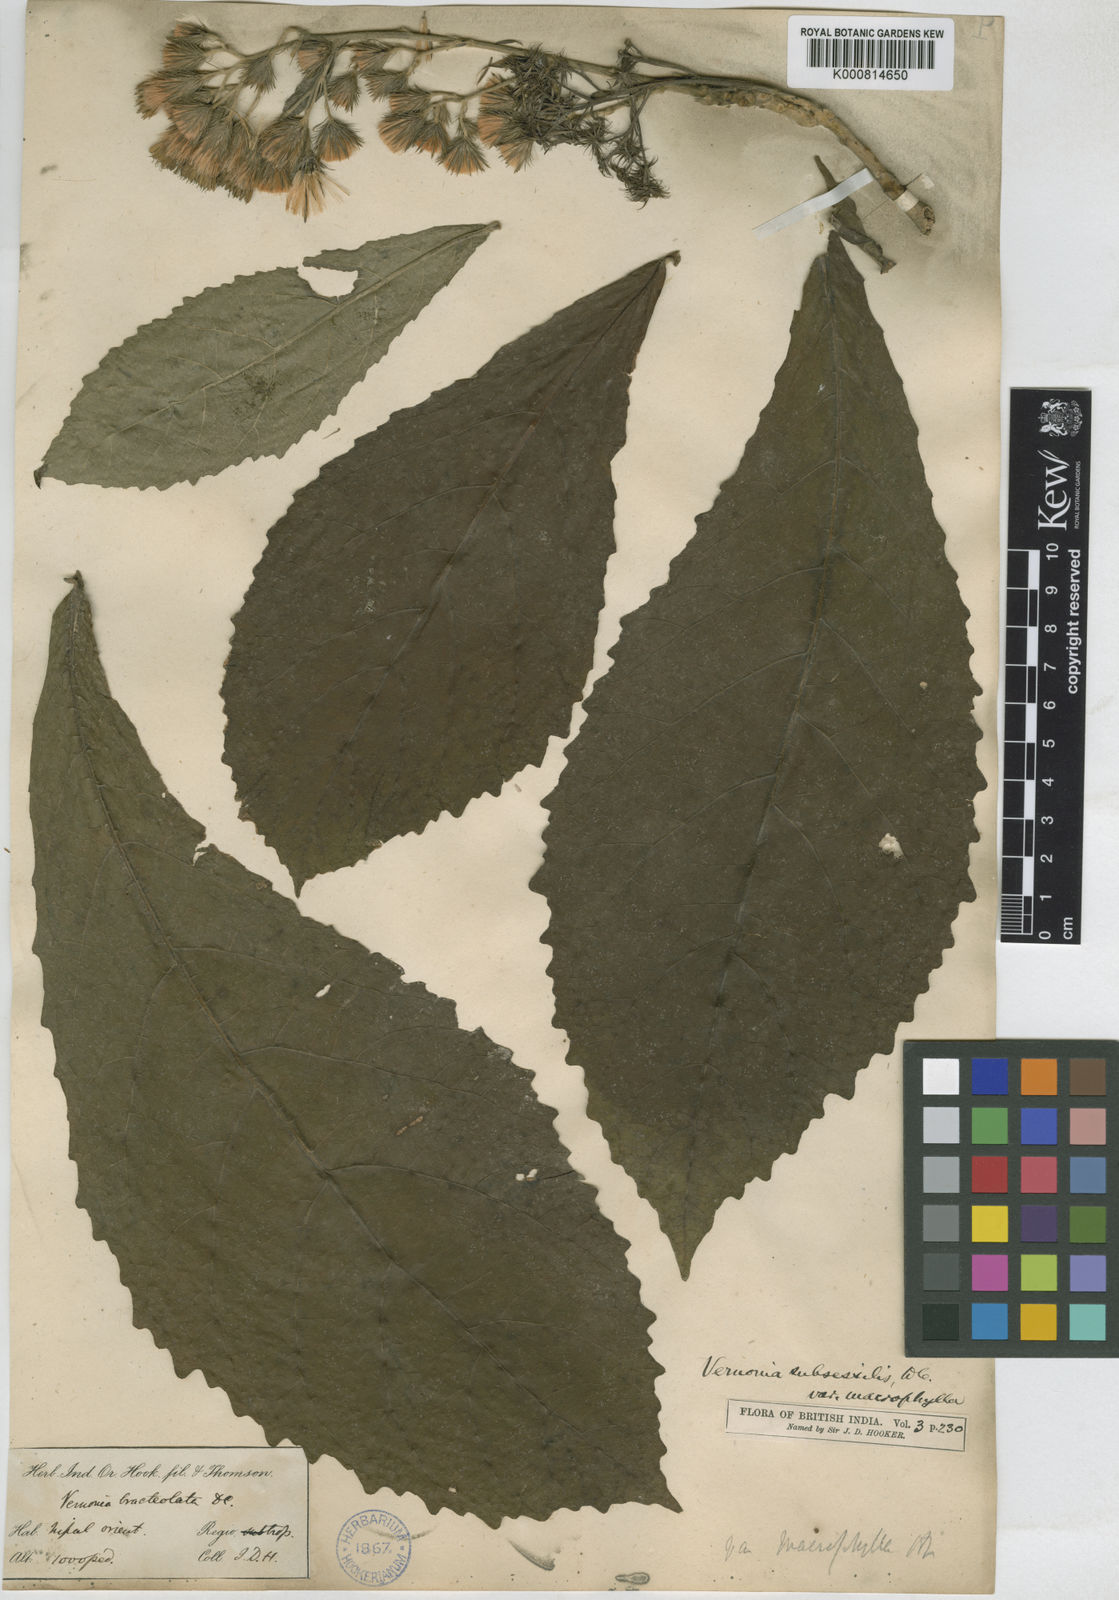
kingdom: Plantae
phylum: Tracheophyta
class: Magnoliopsida
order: Asterales
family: Asteraceae
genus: Khasianthus
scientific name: Khasianthus subsessilis
